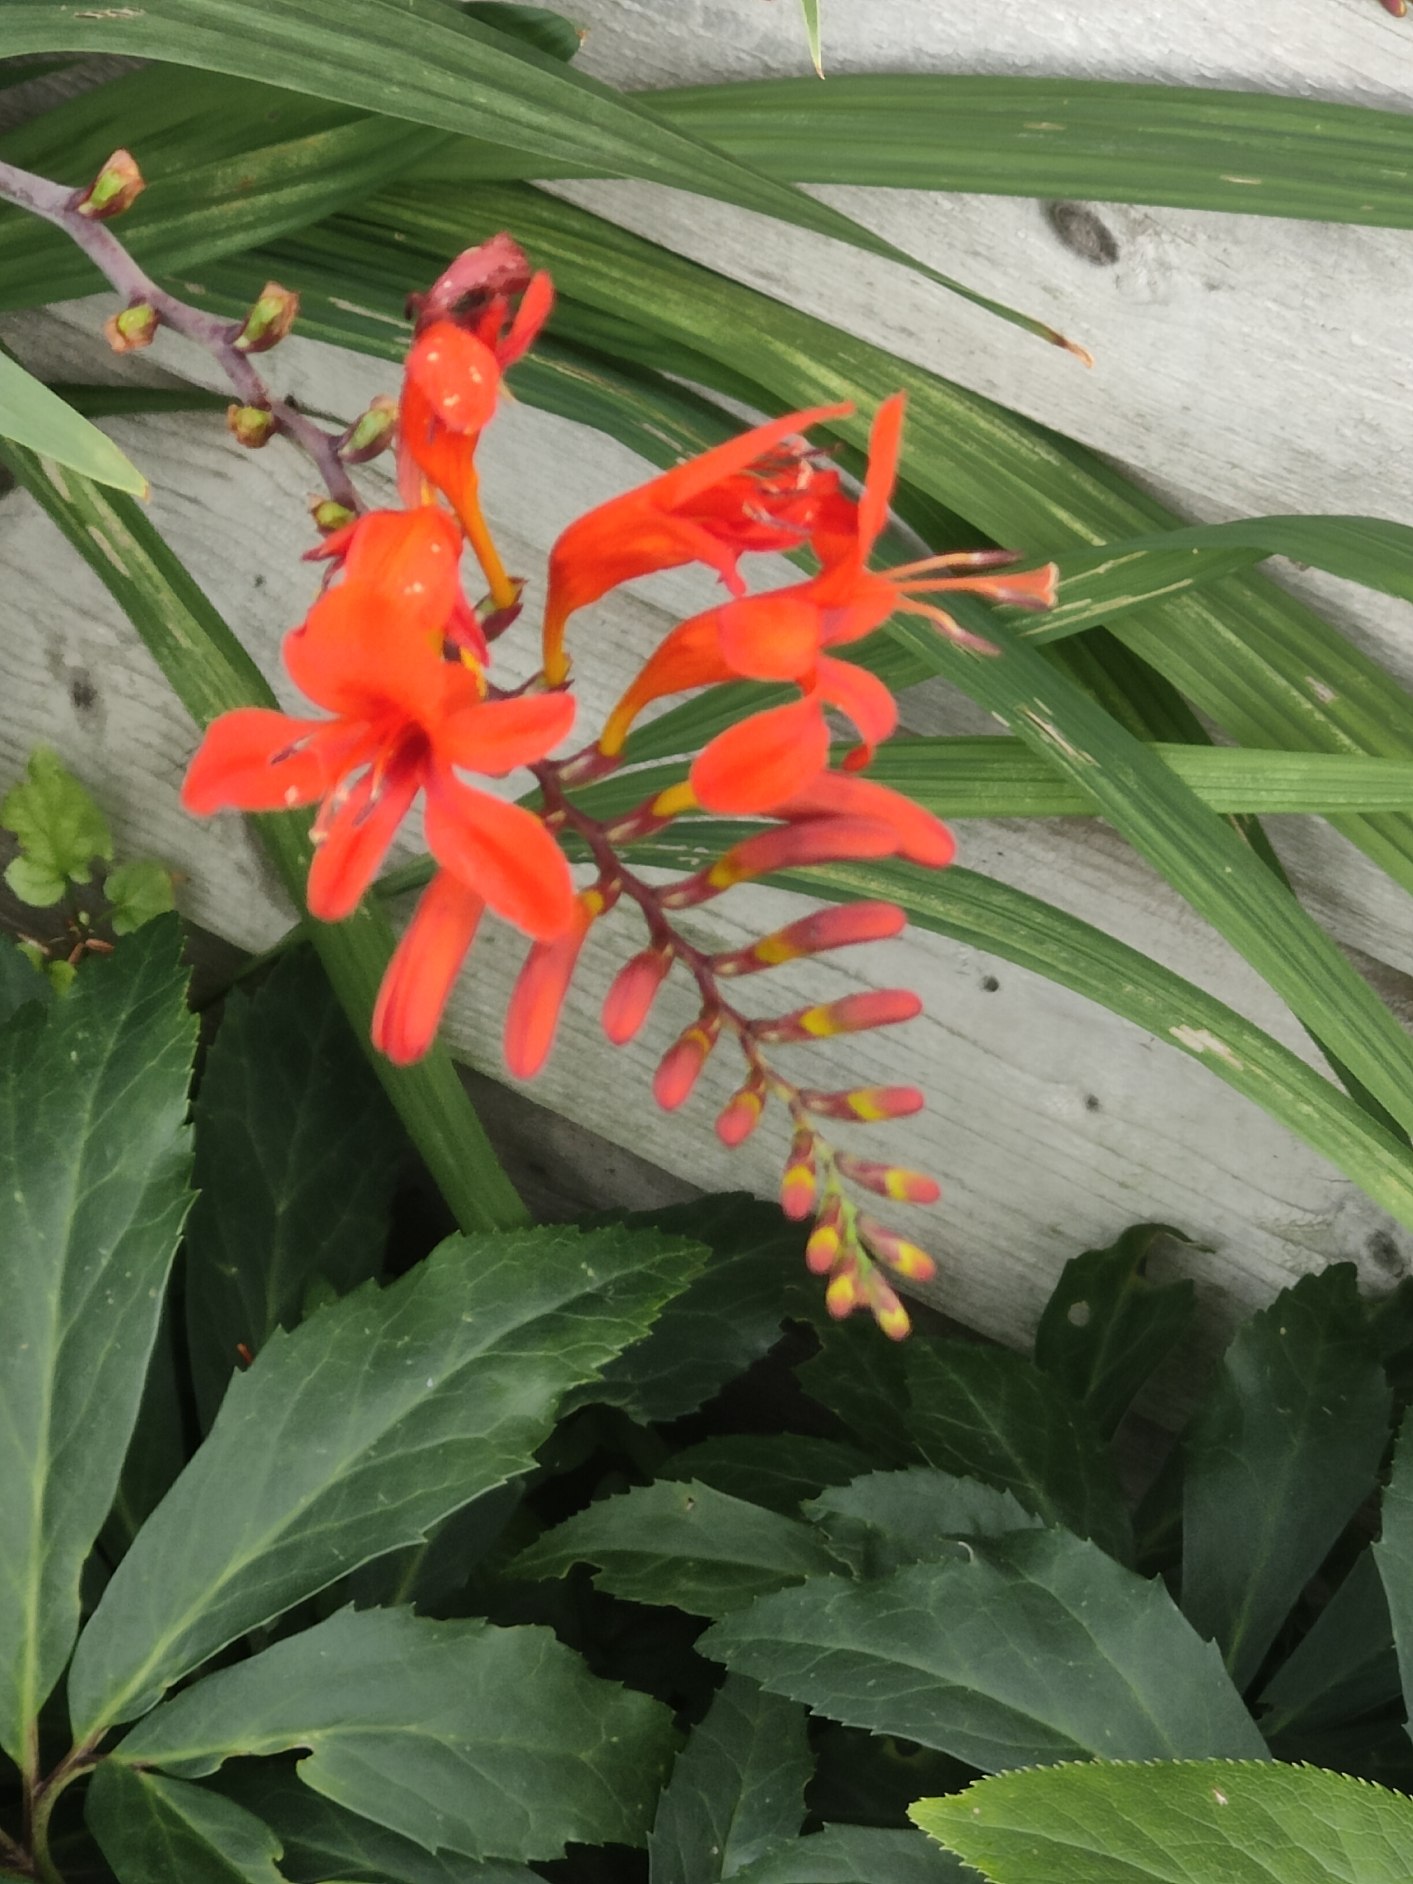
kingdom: Plantae
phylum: Tracheophyta
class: Liliopsida
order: Asparagales
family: Iridaceae
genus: Crocosmia
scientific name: Crocosmia crocosmiiflora
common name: Montbretie
